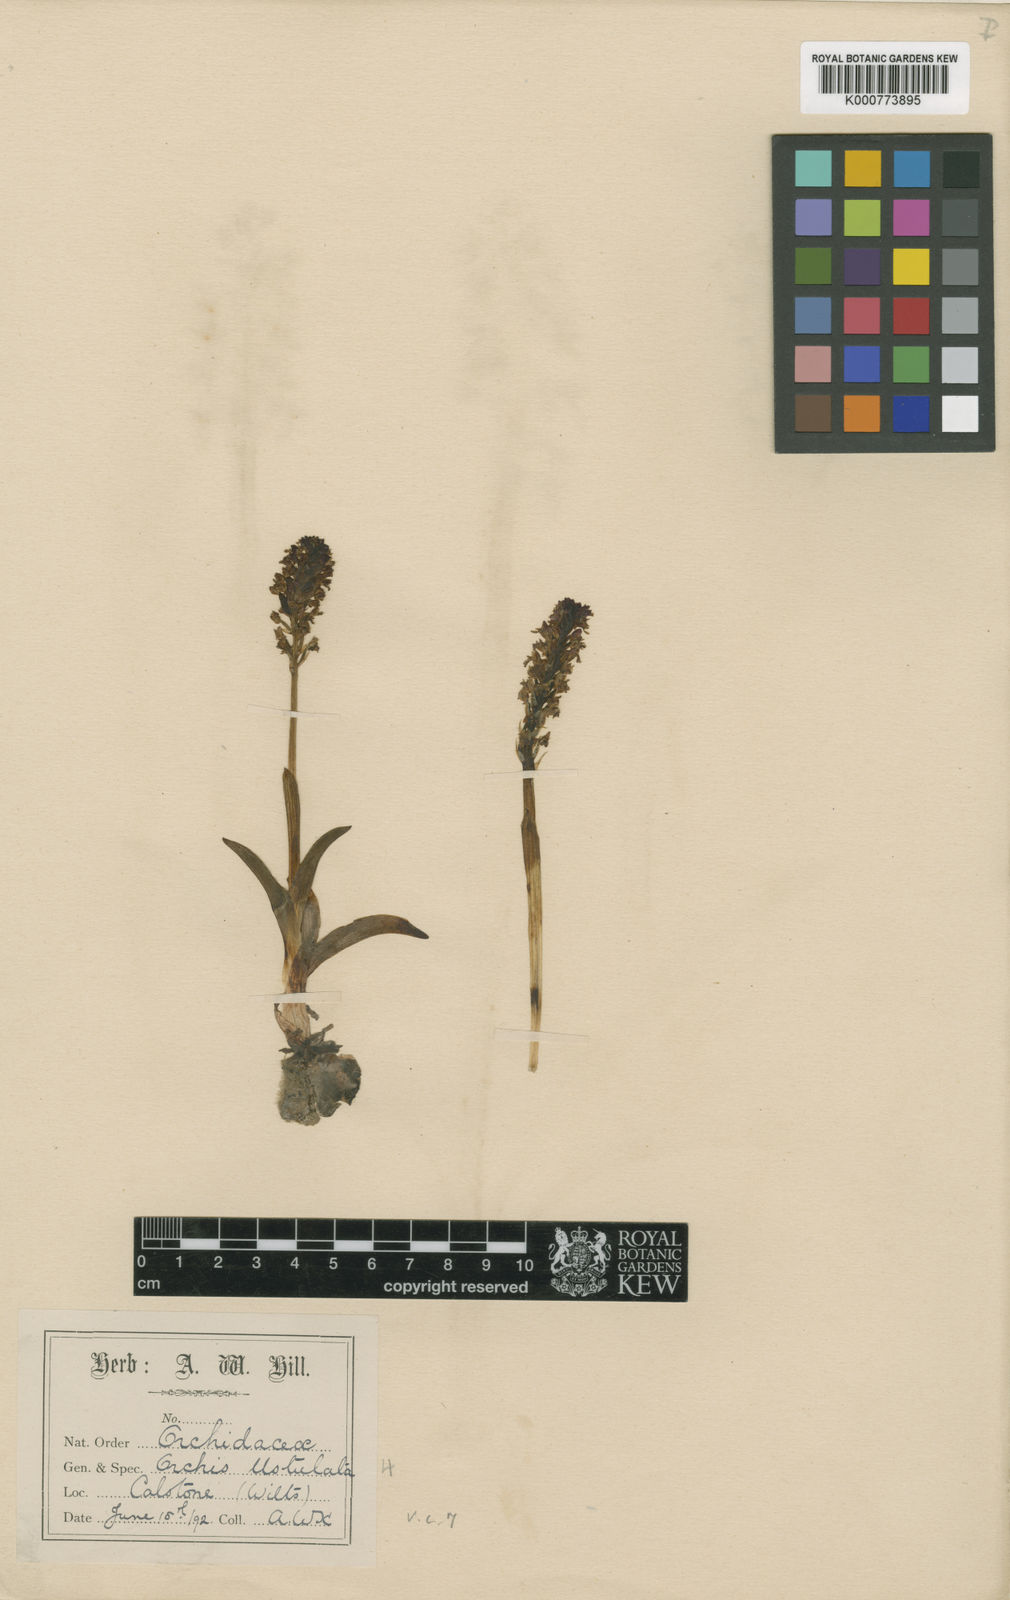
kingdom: Plantae
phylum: Tracheophyta
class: Liliopsida
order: Asparagales
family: Orchidaceae
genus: Neotinea
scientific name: Neotinea ustulata
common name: Burnt orchid
